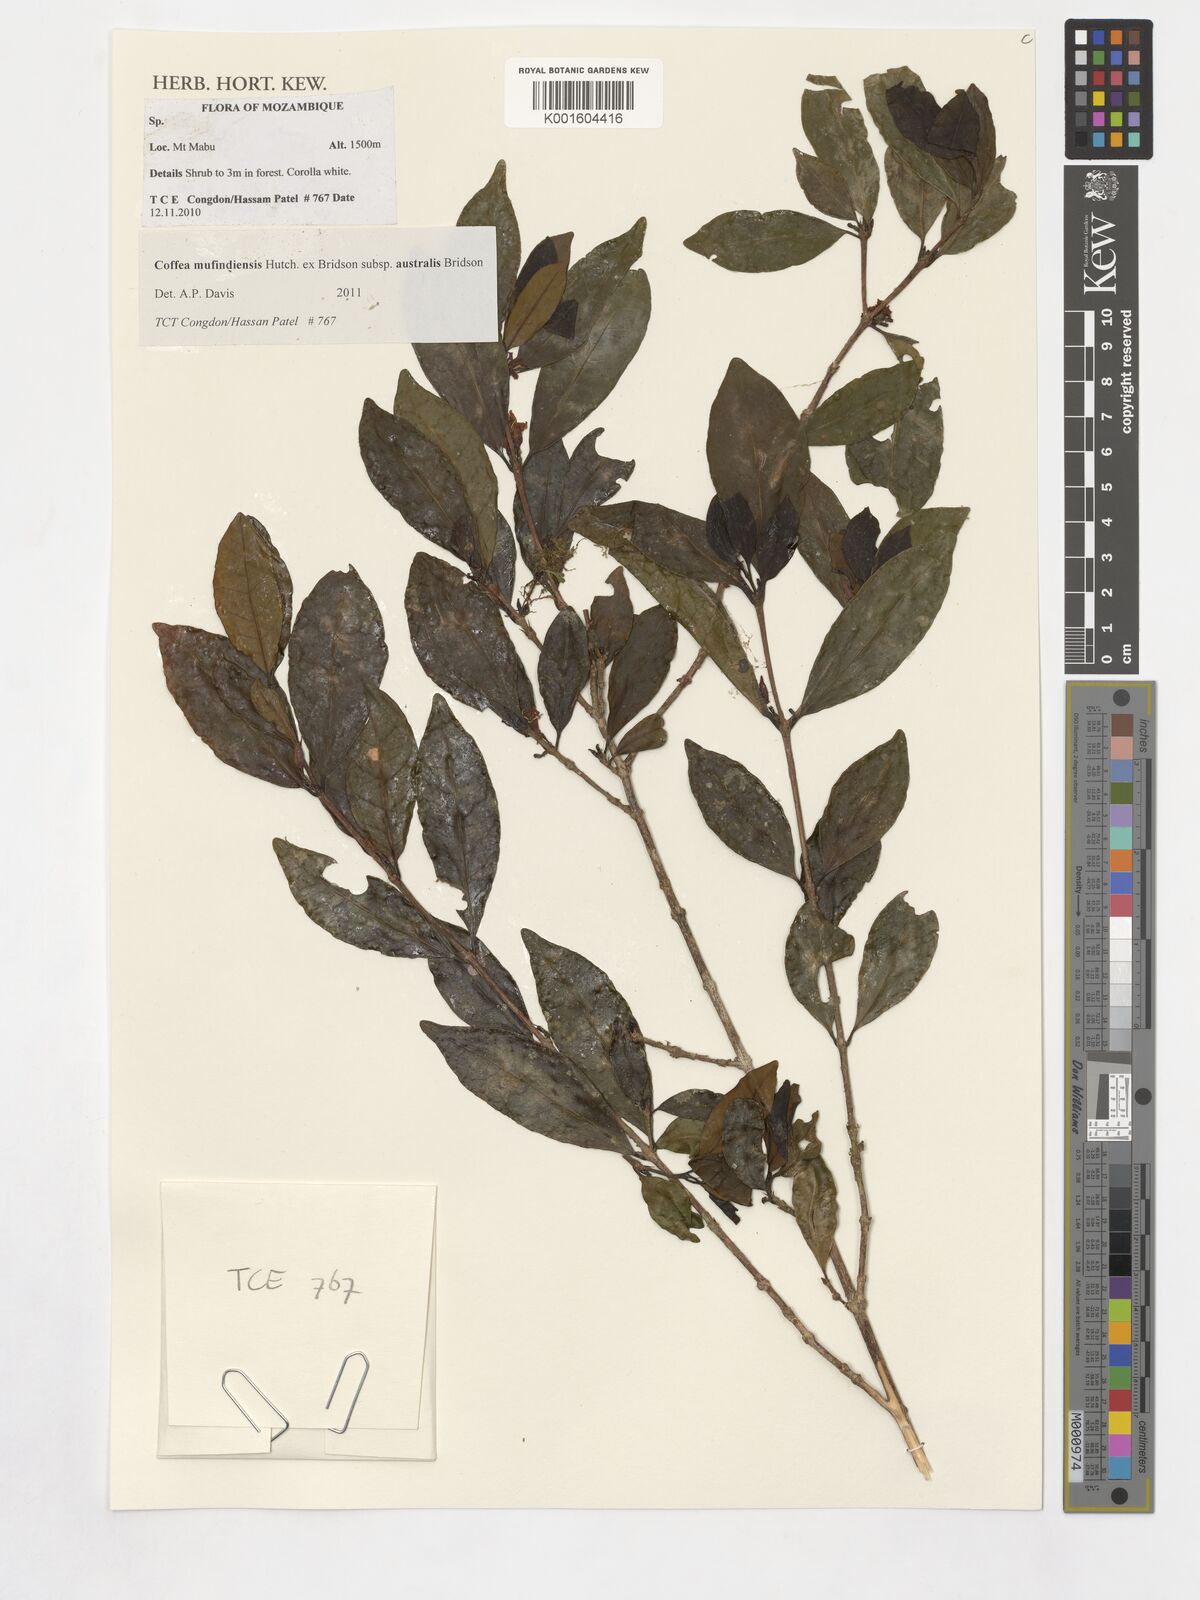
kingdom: Plantae
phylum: Tracheophyta
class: Magnoliopsida
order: Gentianales
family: Rubiaceae
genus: Coffea
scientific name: Coffea mufindiensis
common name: Wild coffee
